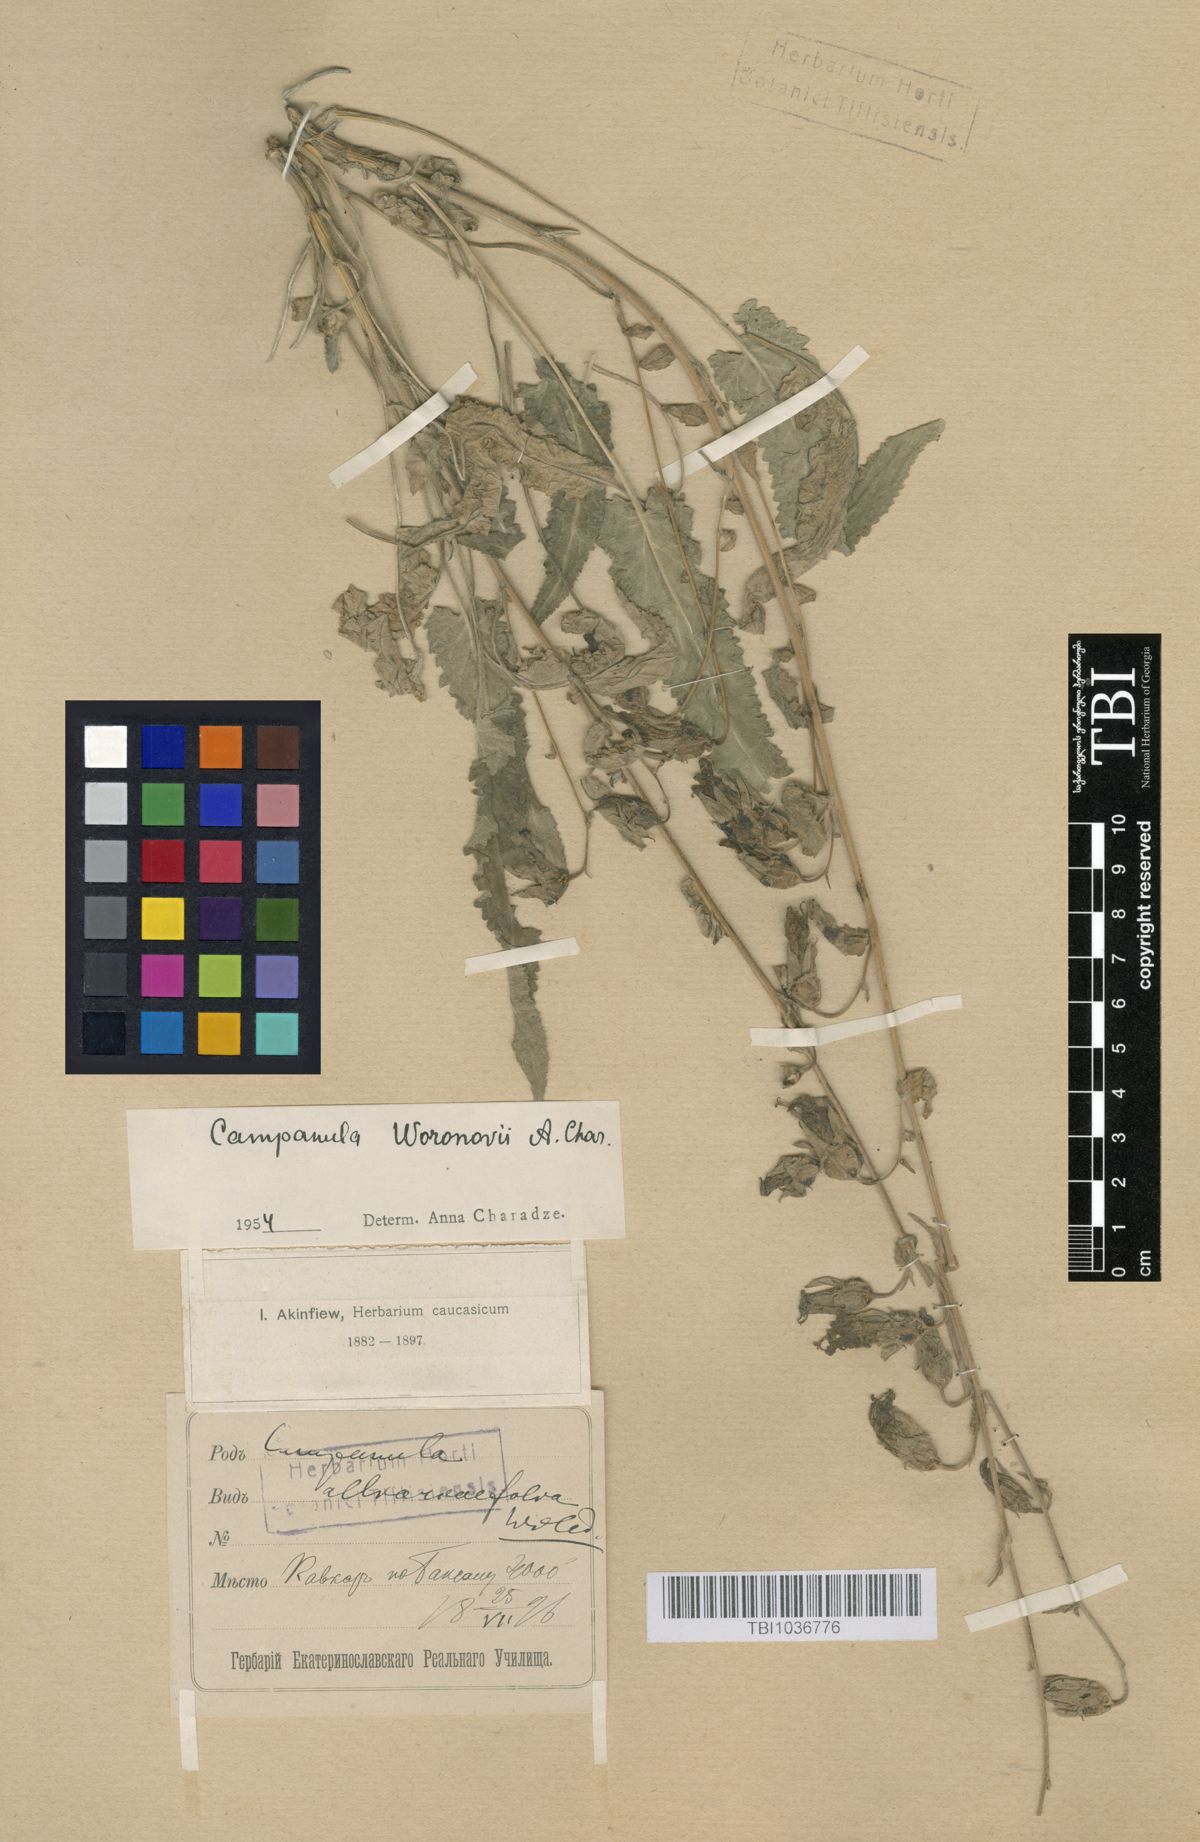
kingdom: Plantae
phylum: Tracheophyta
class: Magnoliopsida
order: Asterales
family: Campanulaceae
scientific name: Campanulaceae
